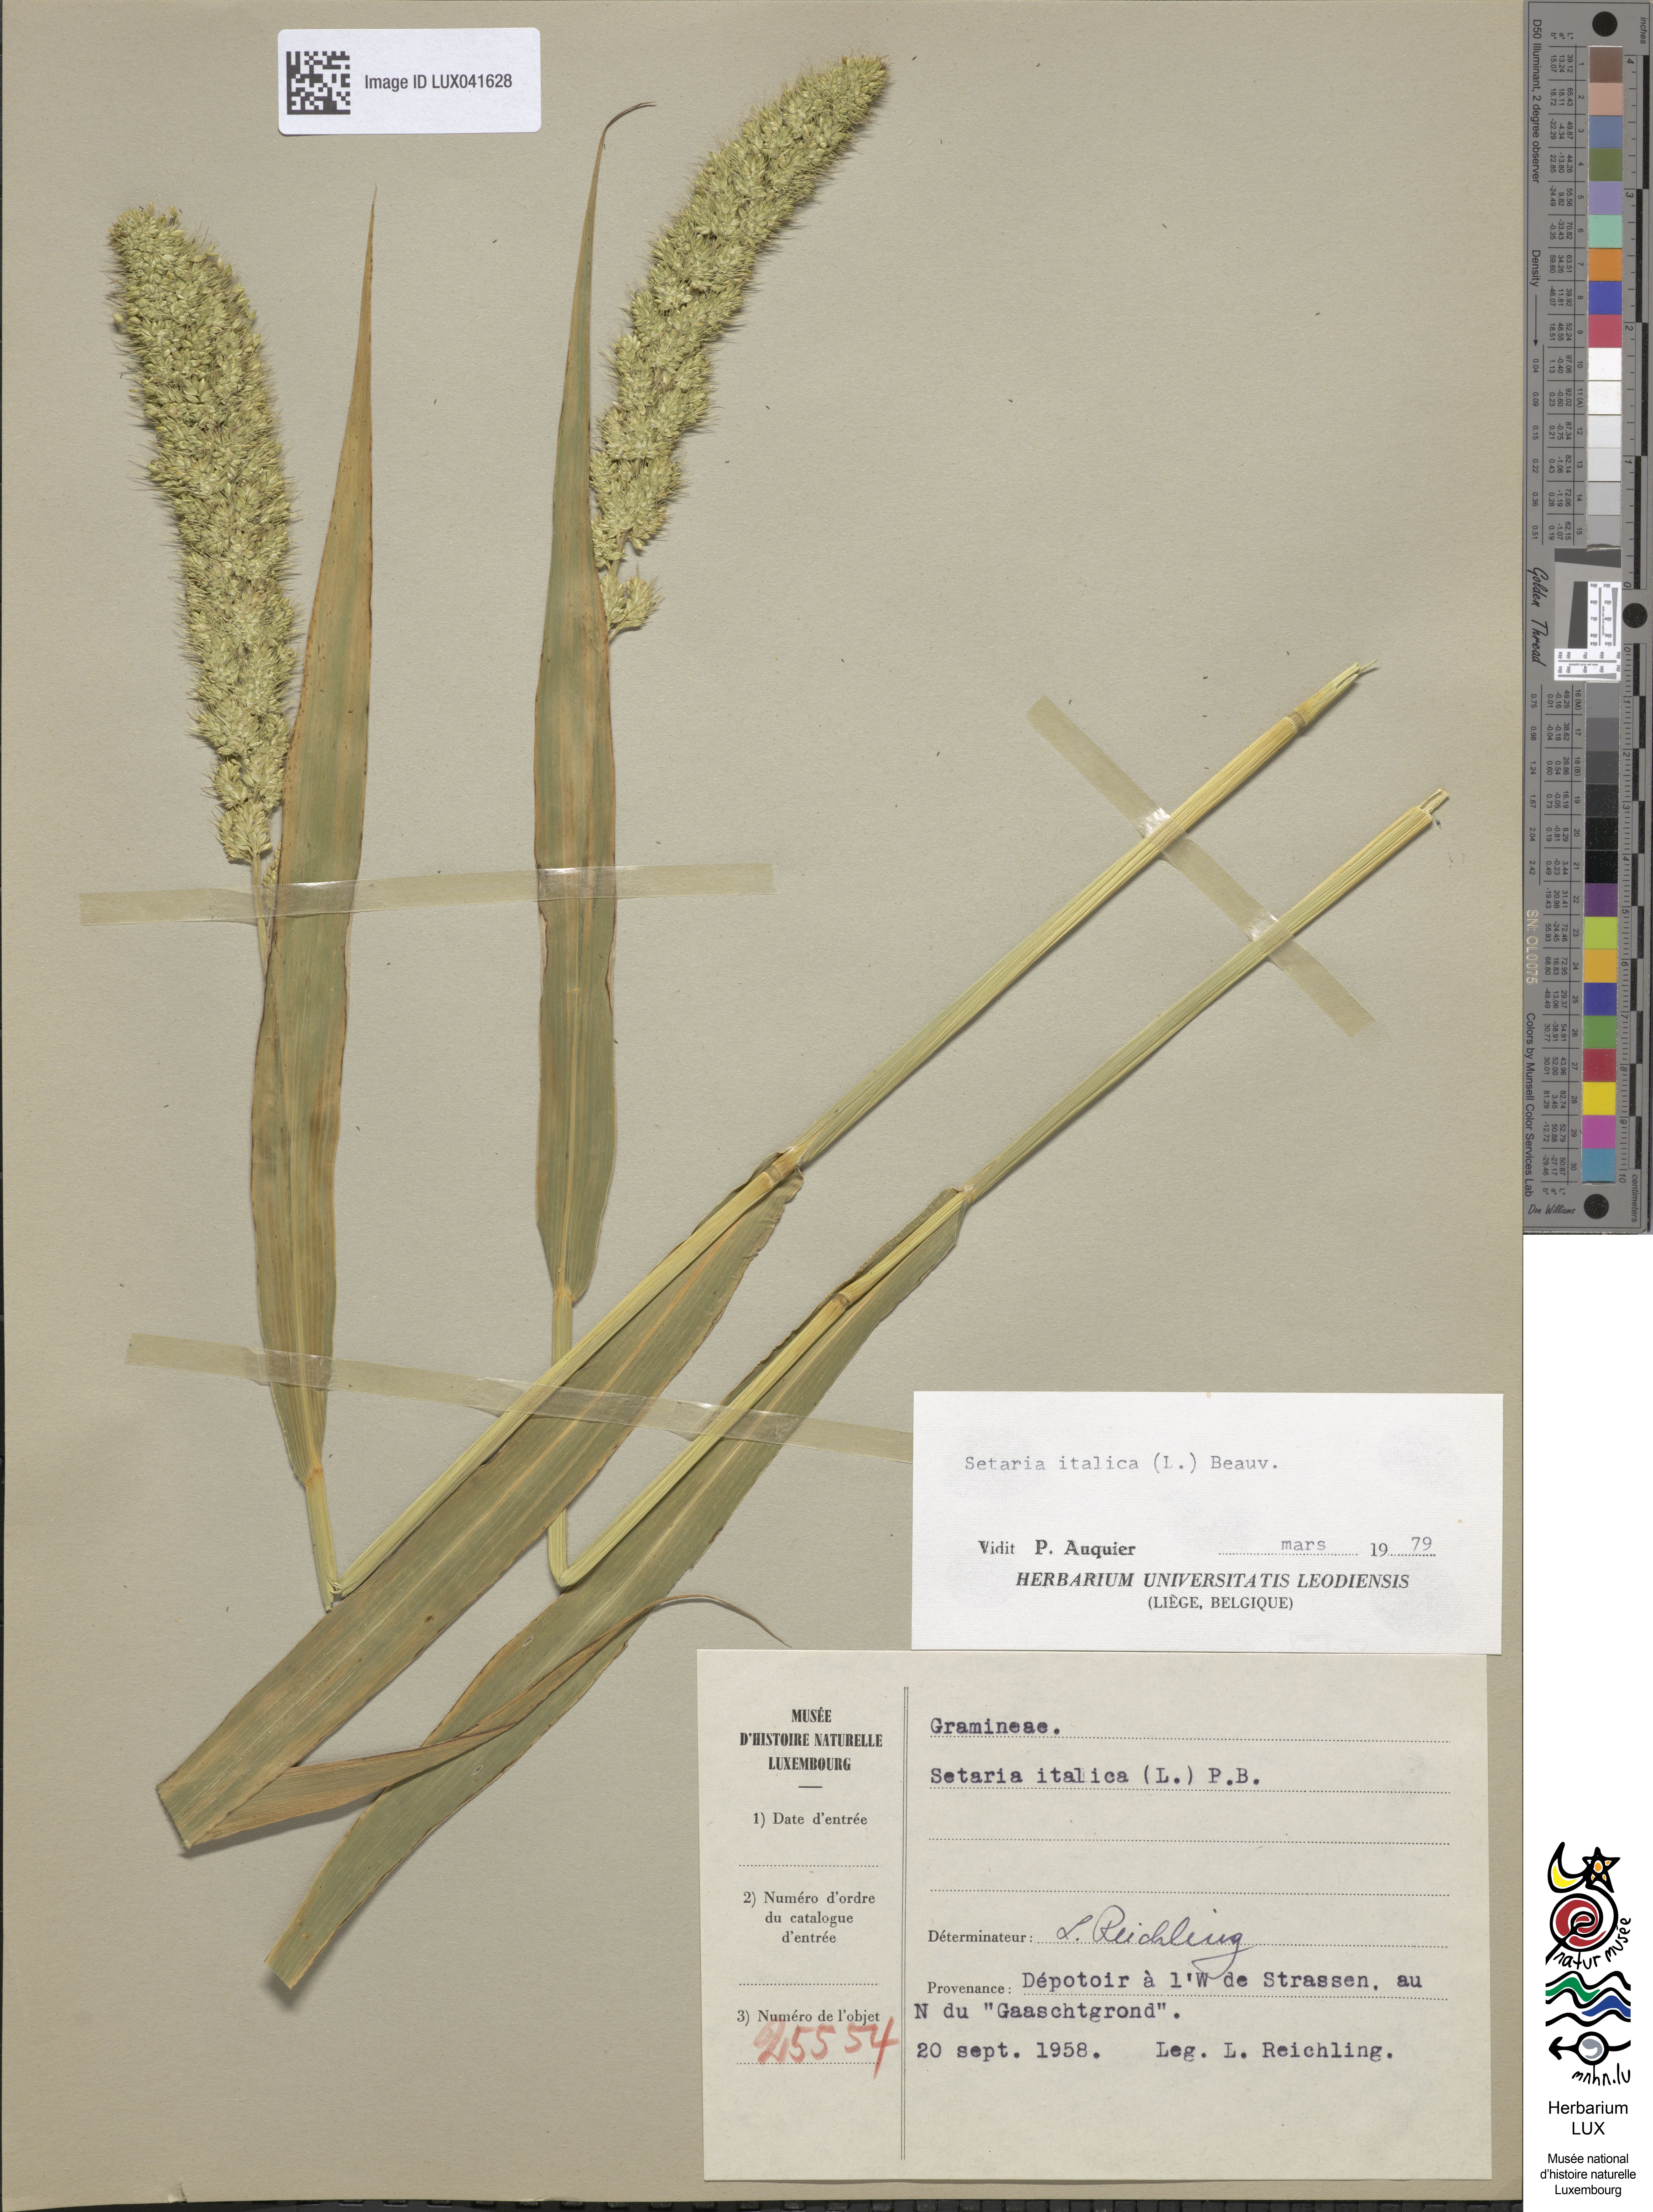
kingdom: Plantae
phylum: Tracheophyta
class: Liliopsida
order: Poales
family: Poaceae
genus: Setaria
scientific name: Setaria italica
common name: Foxtail bristle-grass
